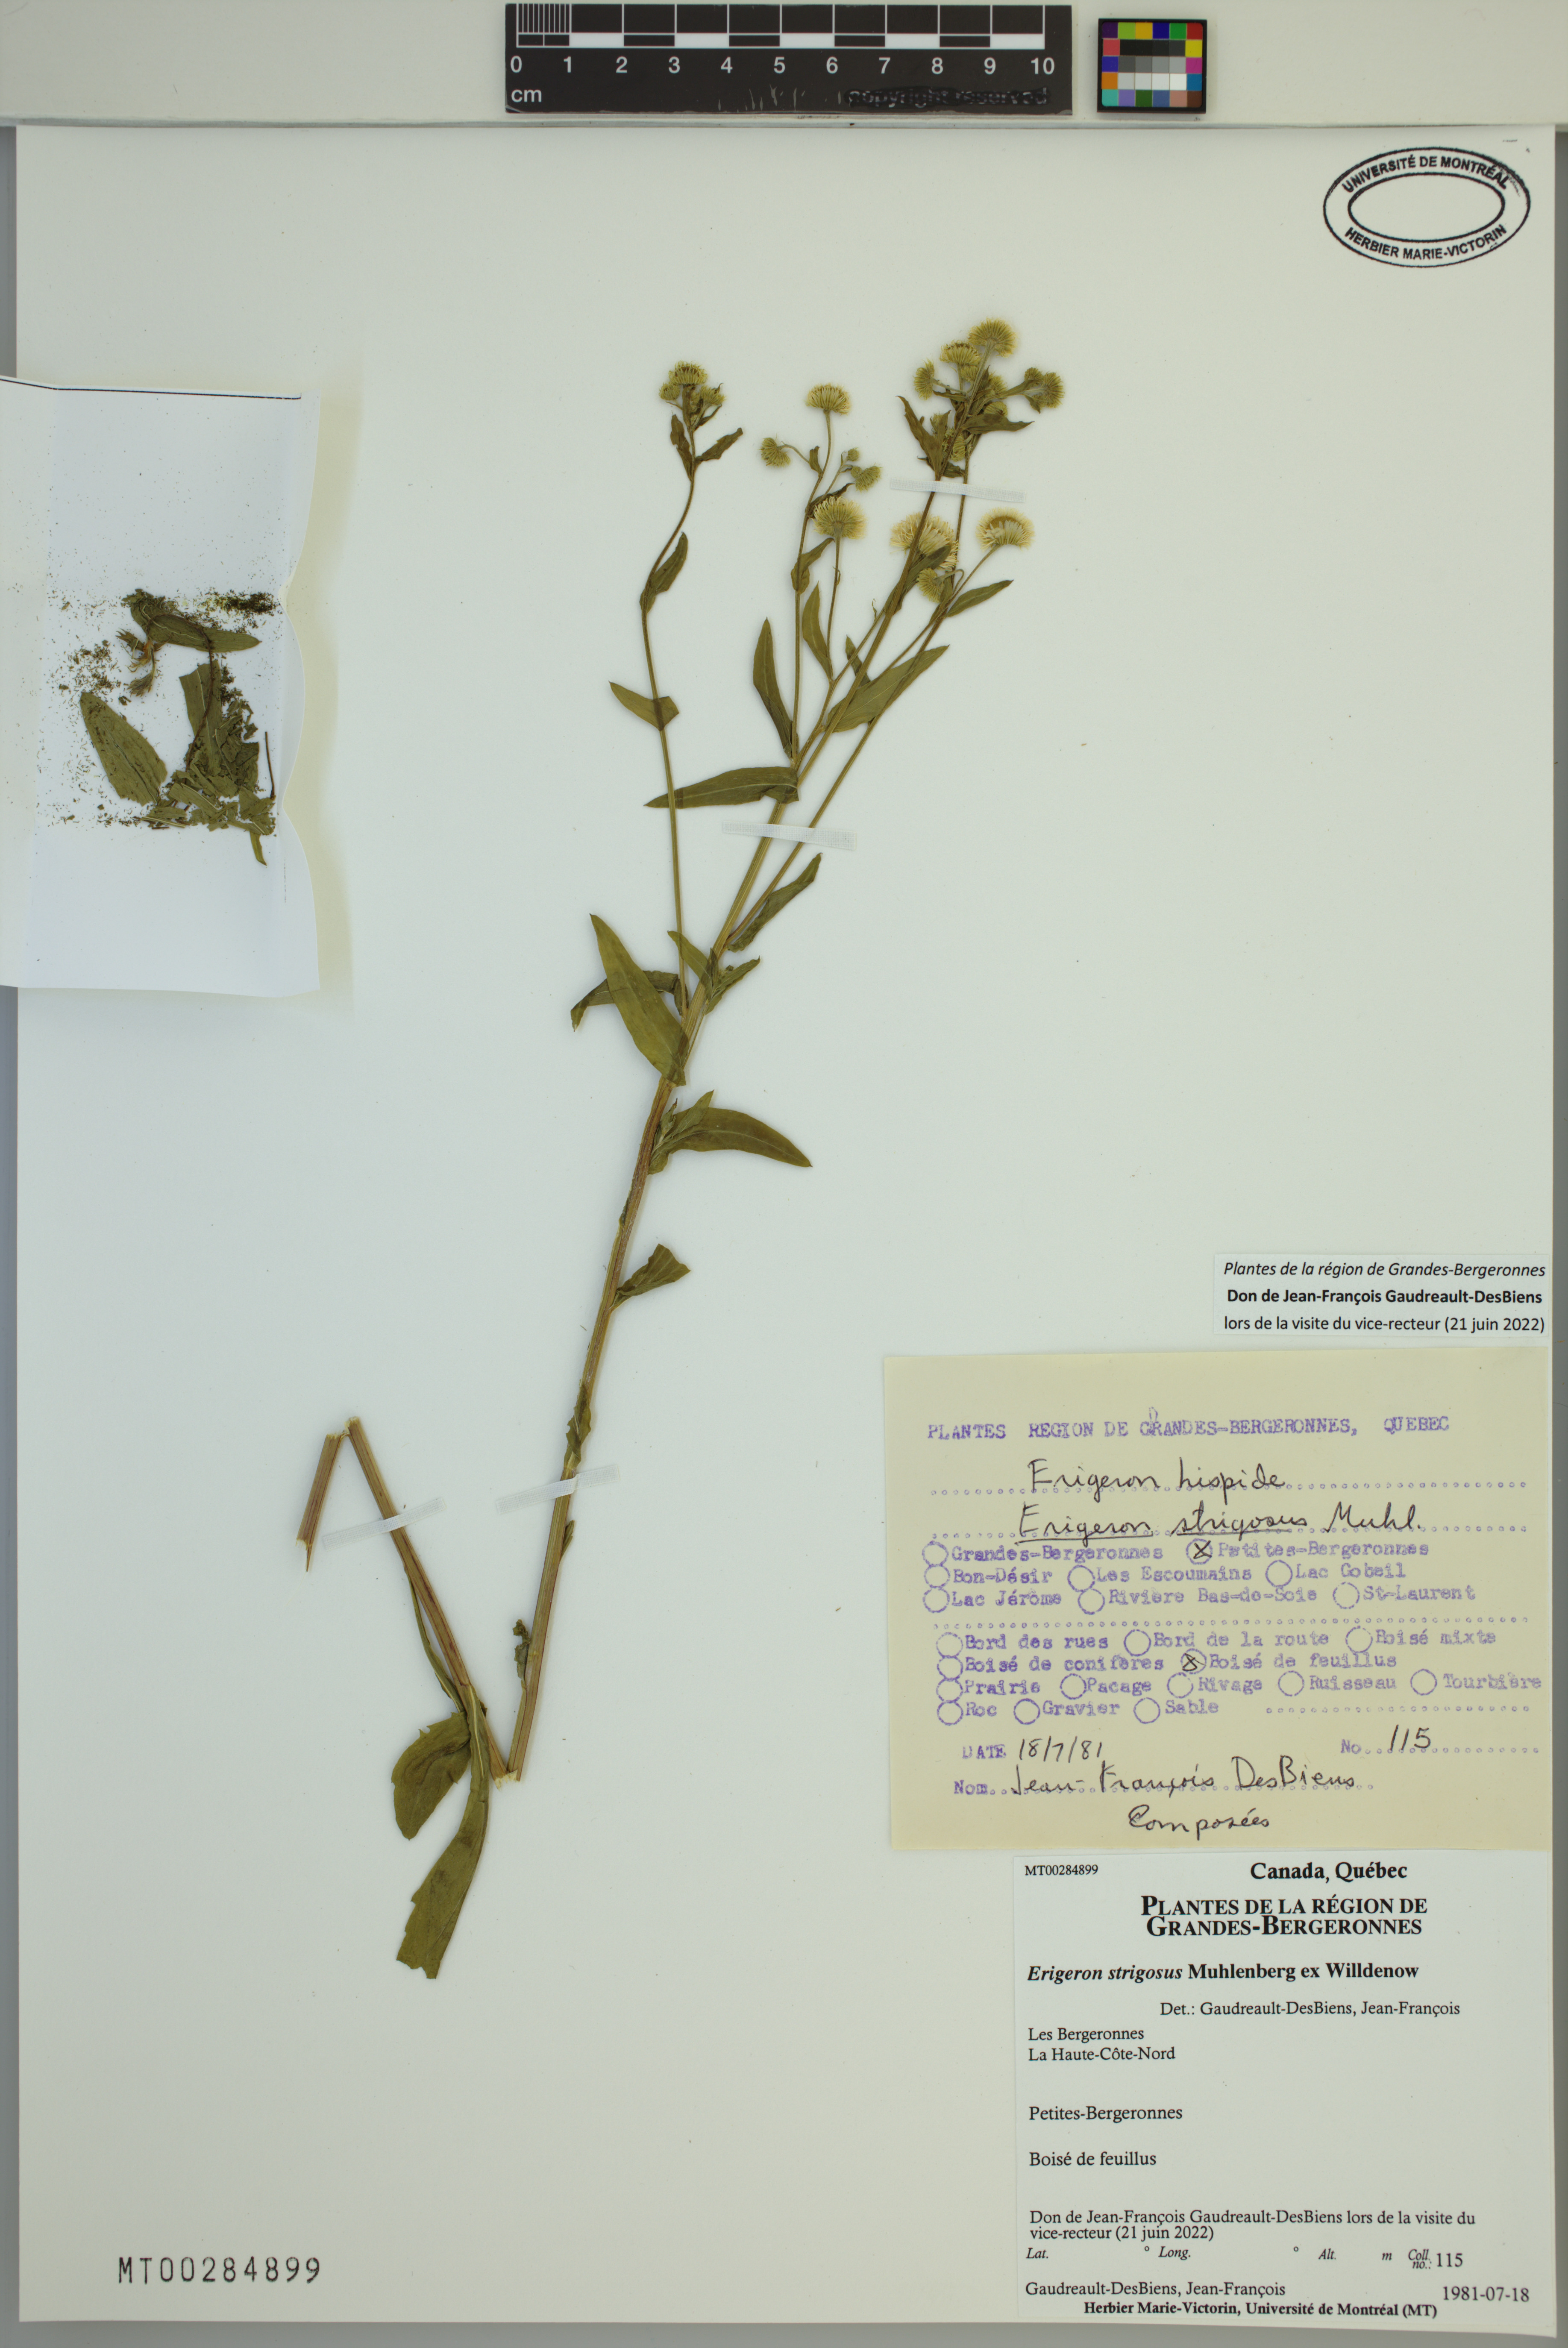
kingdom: Plantae
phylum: Tracheophyta
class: Magnoliopsida
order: Asterales
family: Asteraceae
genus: Erigeron
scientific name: Erigeron strigosus
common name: Common eastern fleabane
